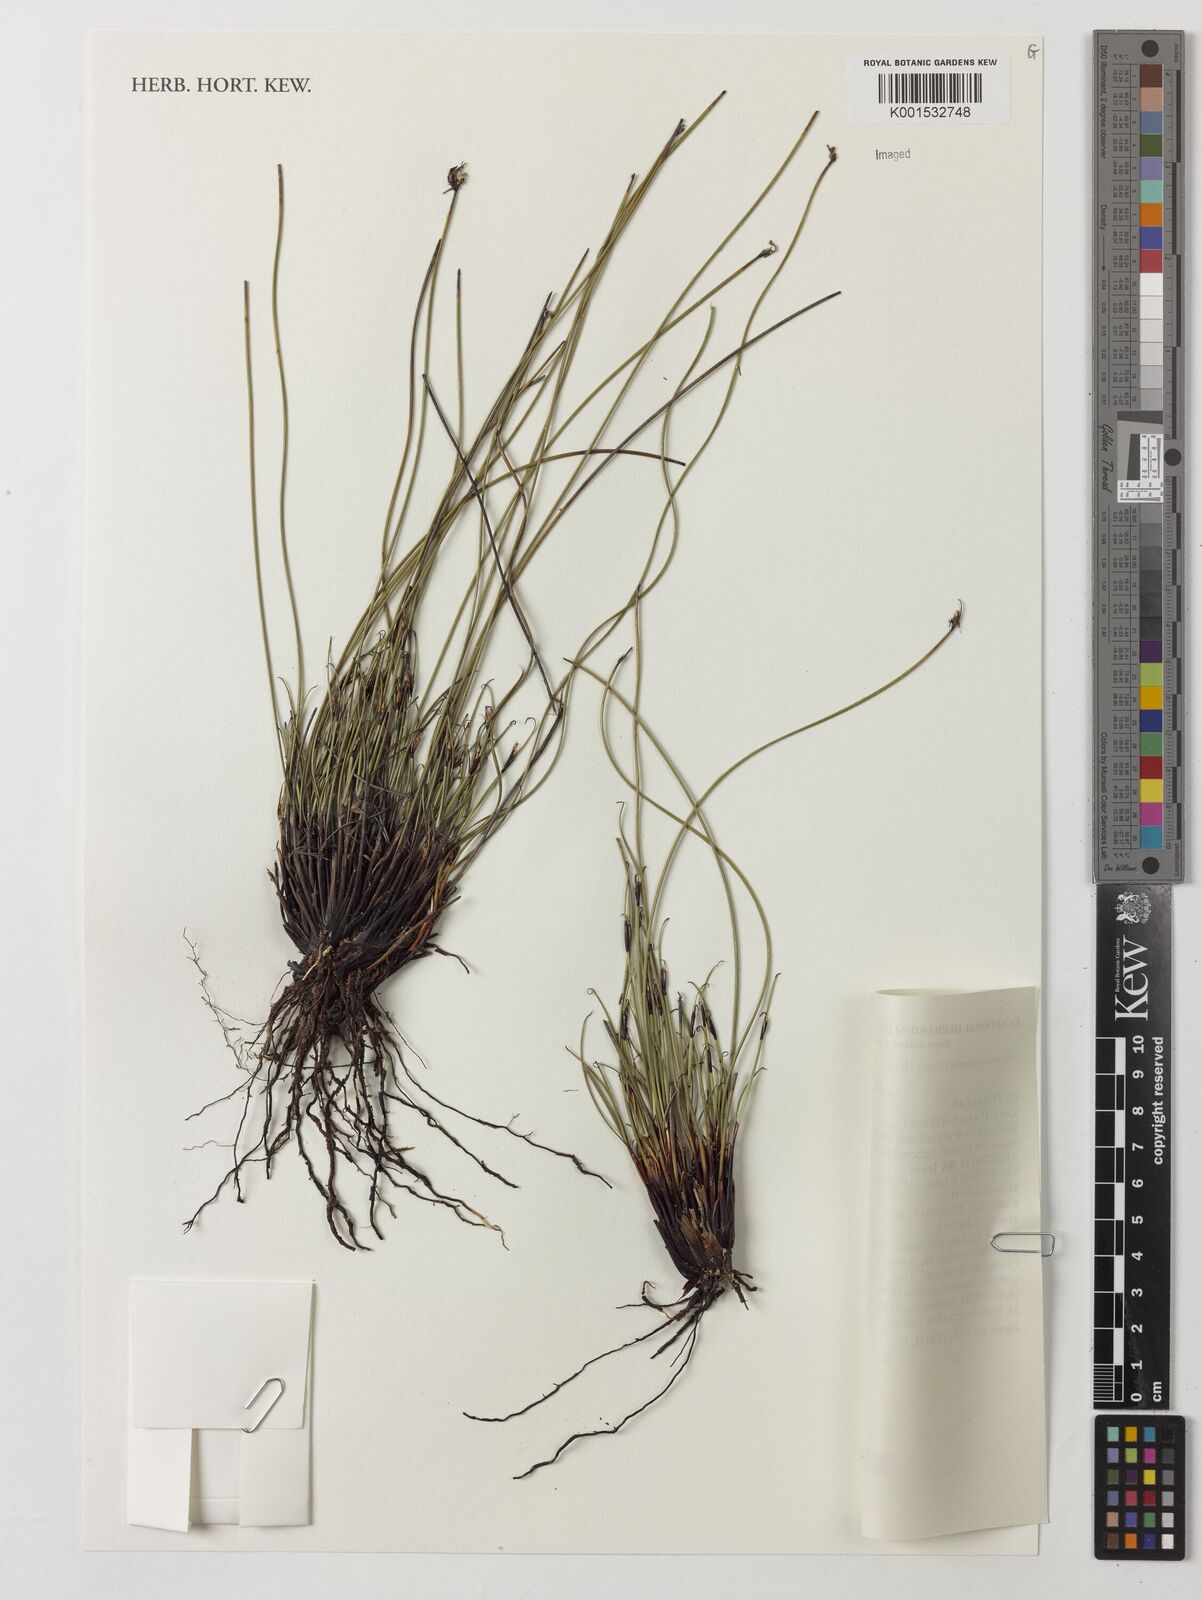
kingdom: Plantae
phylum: Tracheophyta
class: Liliopsida
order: Poales
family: Cyperaceae
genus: Schoenus
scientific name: Schoenus cygneus
